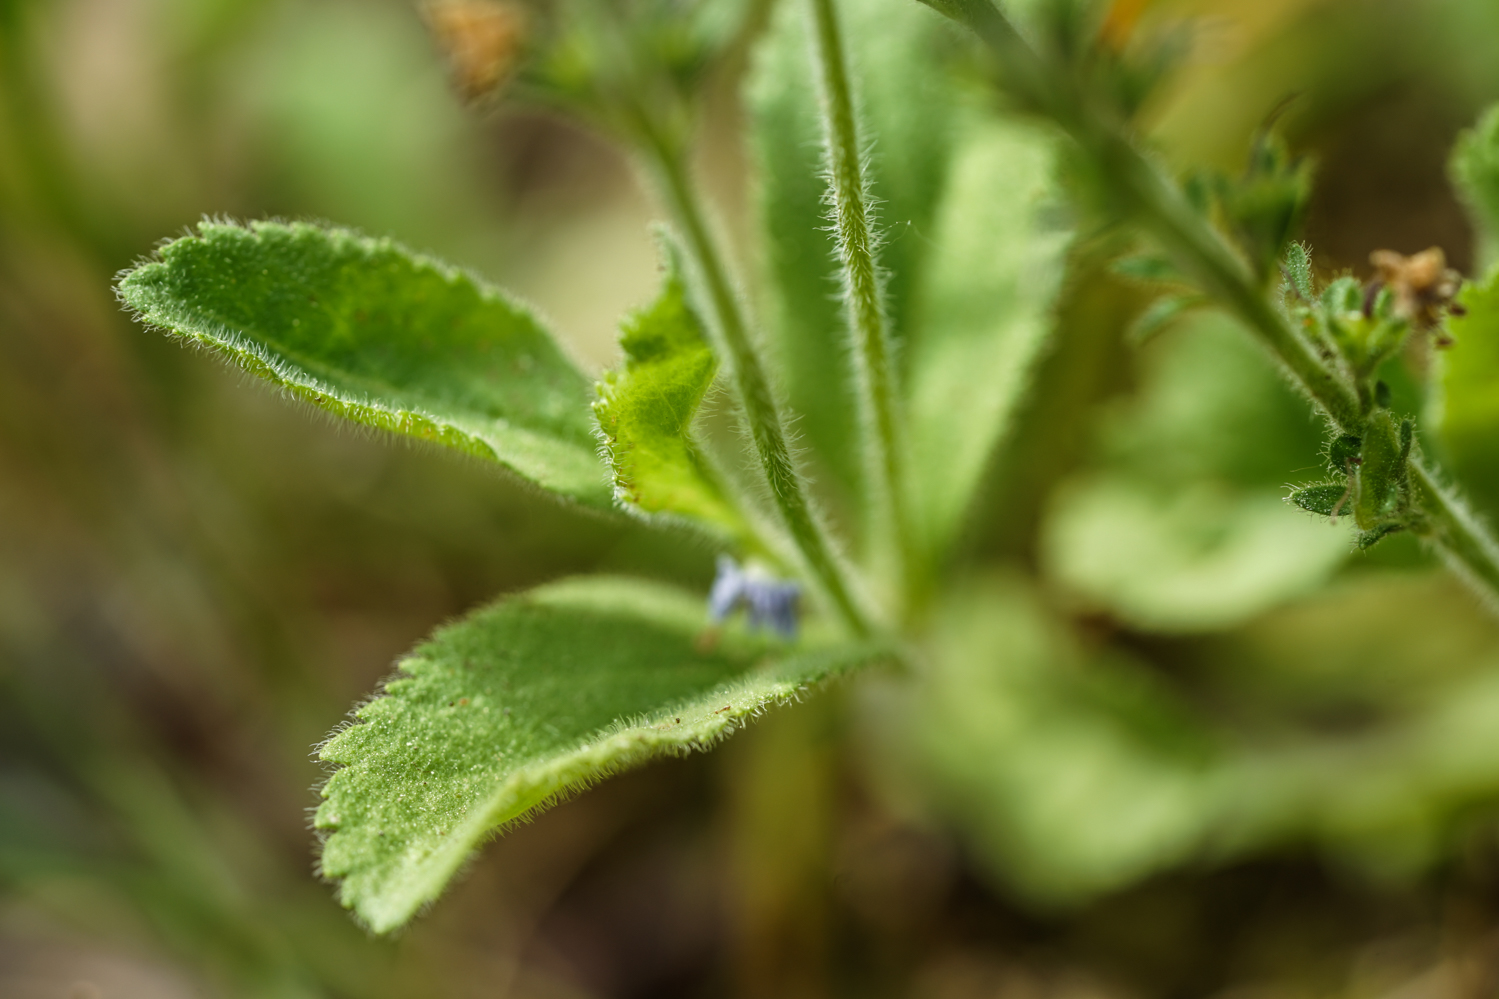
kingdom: Plantae
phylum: Tracheophyta
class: Magnoliopsida
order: Lamiales
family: Plantaginaceae
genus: Veronica
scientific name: Veronica teucrium
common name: Large speedwell
